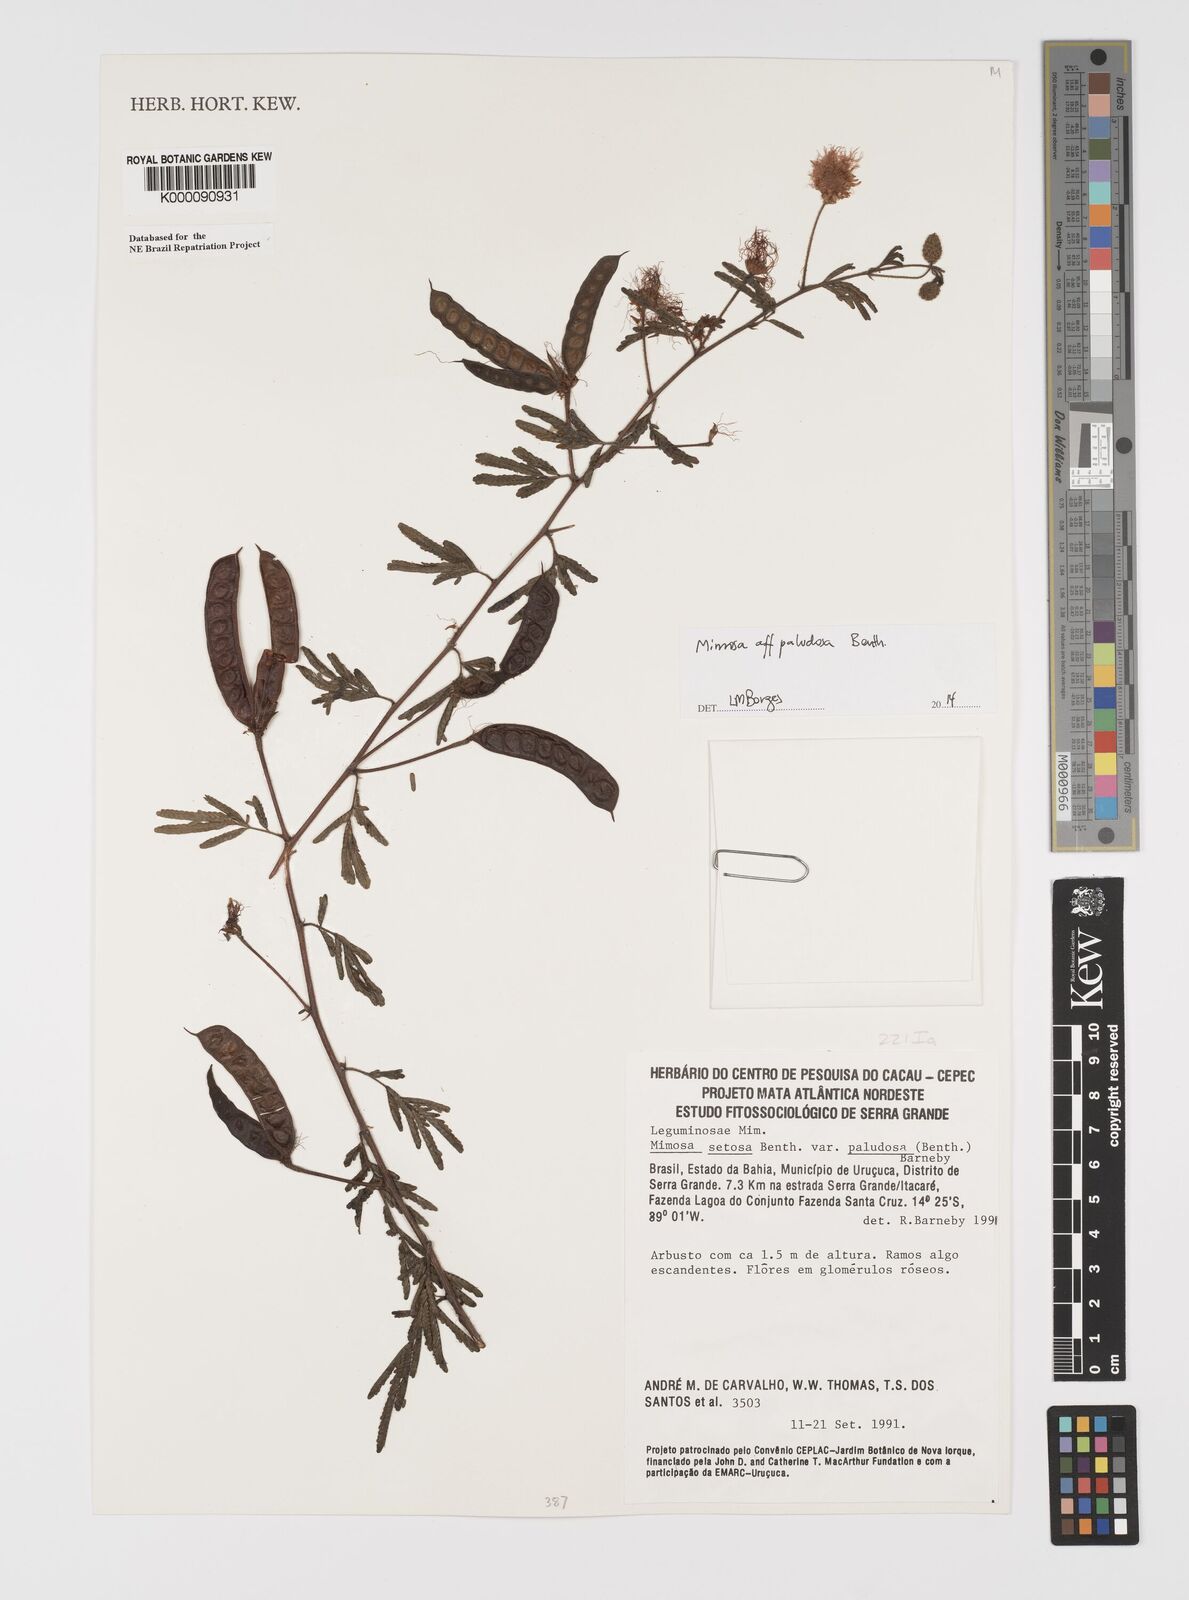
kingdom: Plantae
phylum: Tracheophyta
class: Magnoliopsida
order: Fabales
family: Fabaceae
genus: Mimosa
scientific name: Mimosa paludosa
